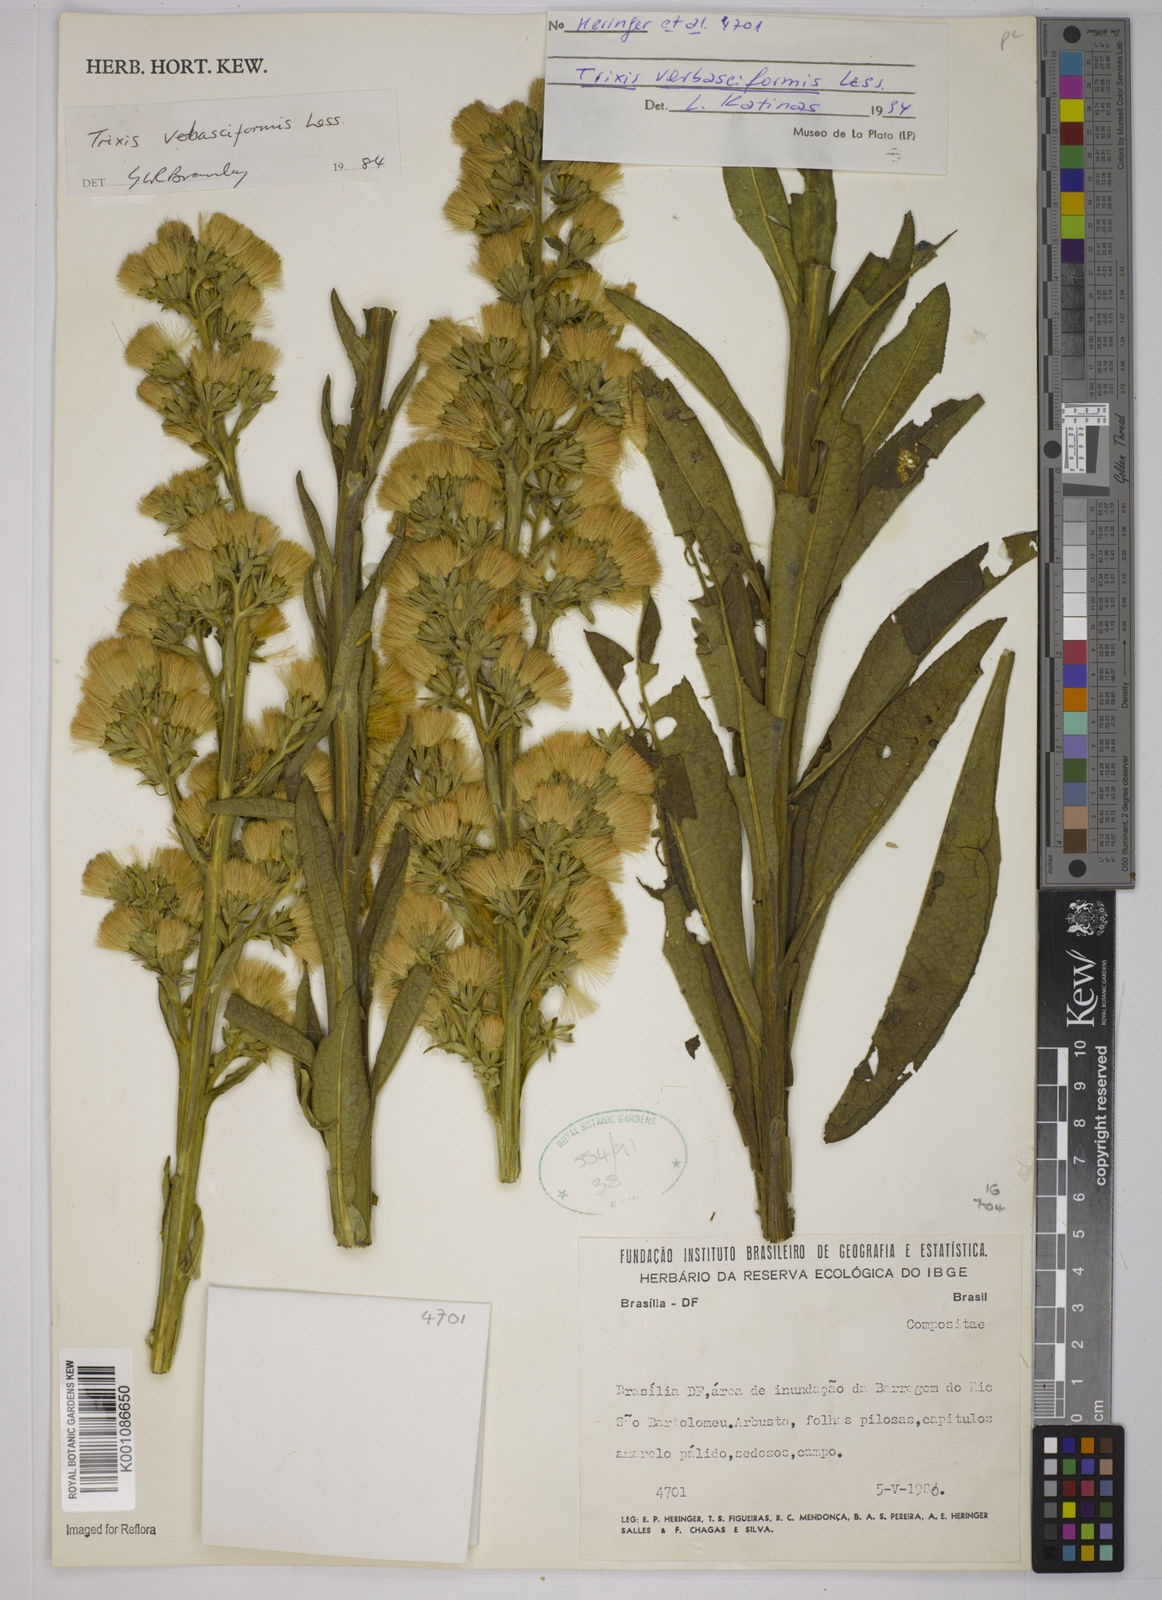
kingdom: Plantae
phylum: Tracheophyta
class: Magnoliopsida
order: Asterales
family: Asteraceae
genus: Trixis
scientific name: Trixis nobilis
